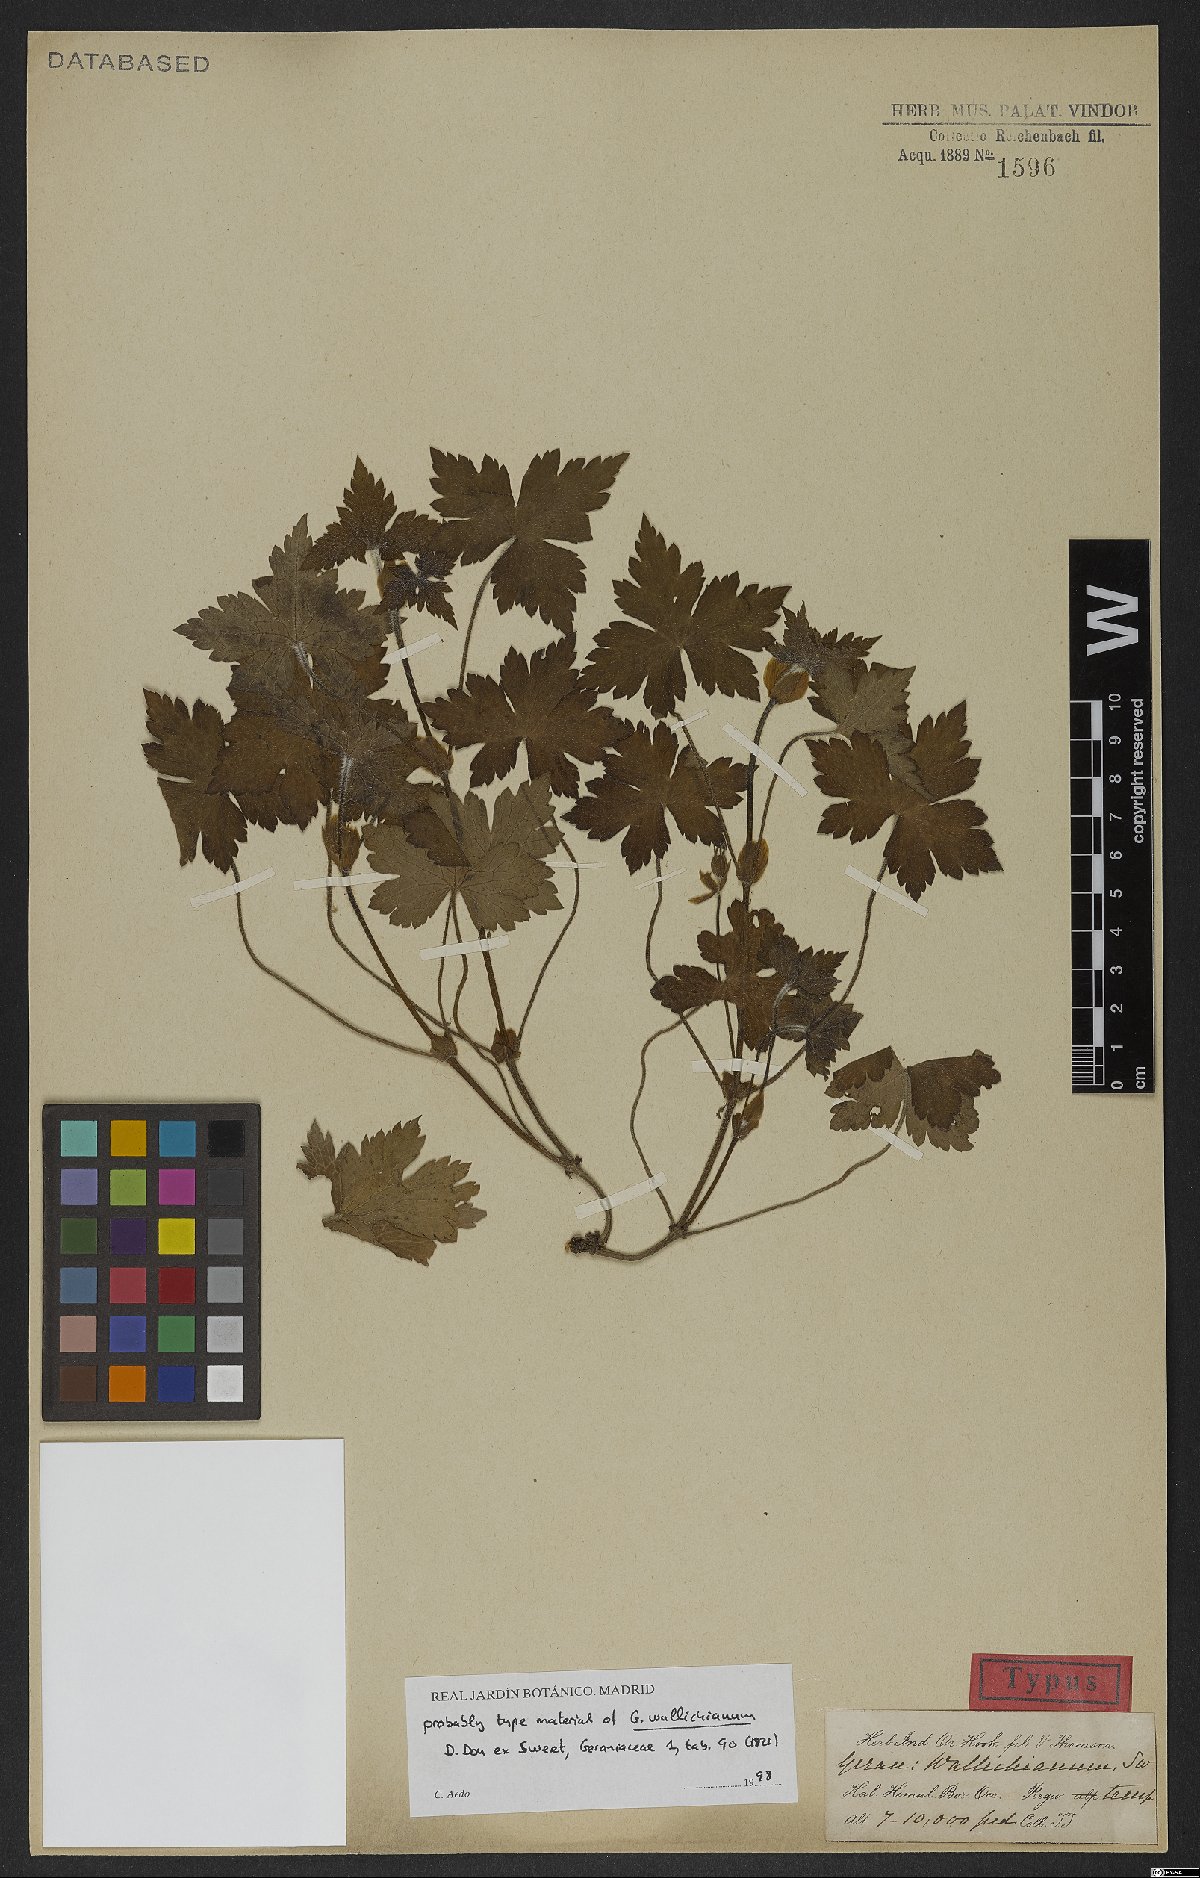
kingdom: Plantae
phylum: Tracheophyta
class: Magnoliopsida
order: Geraniales
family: Geraniaceae
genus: Geranium
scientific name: Geranium wallichianum
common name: Buxton's blue
